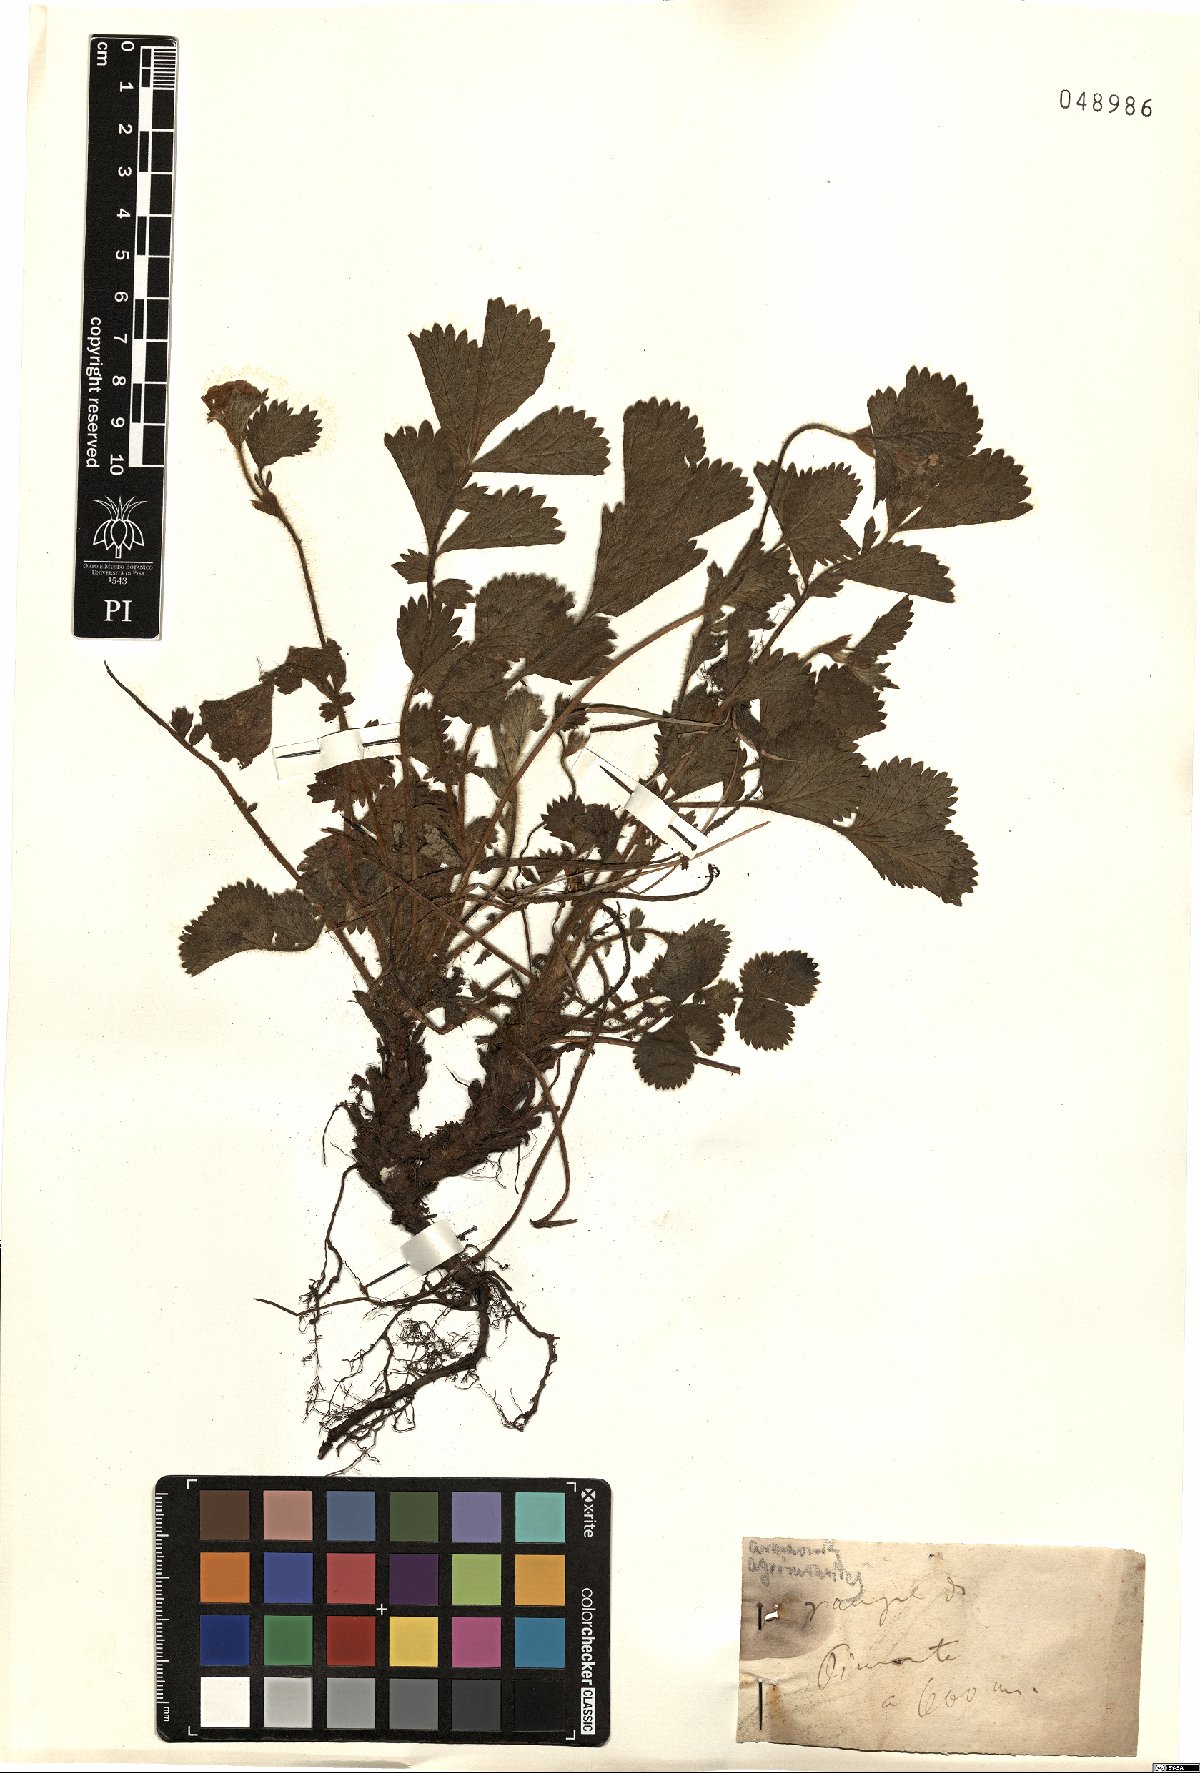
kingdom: Plantae
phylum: Tracheophyta
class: Magnoliopsida
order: Rosales
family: Rosaceae
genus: Aremonia
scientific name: Aremonia agrimonoides
